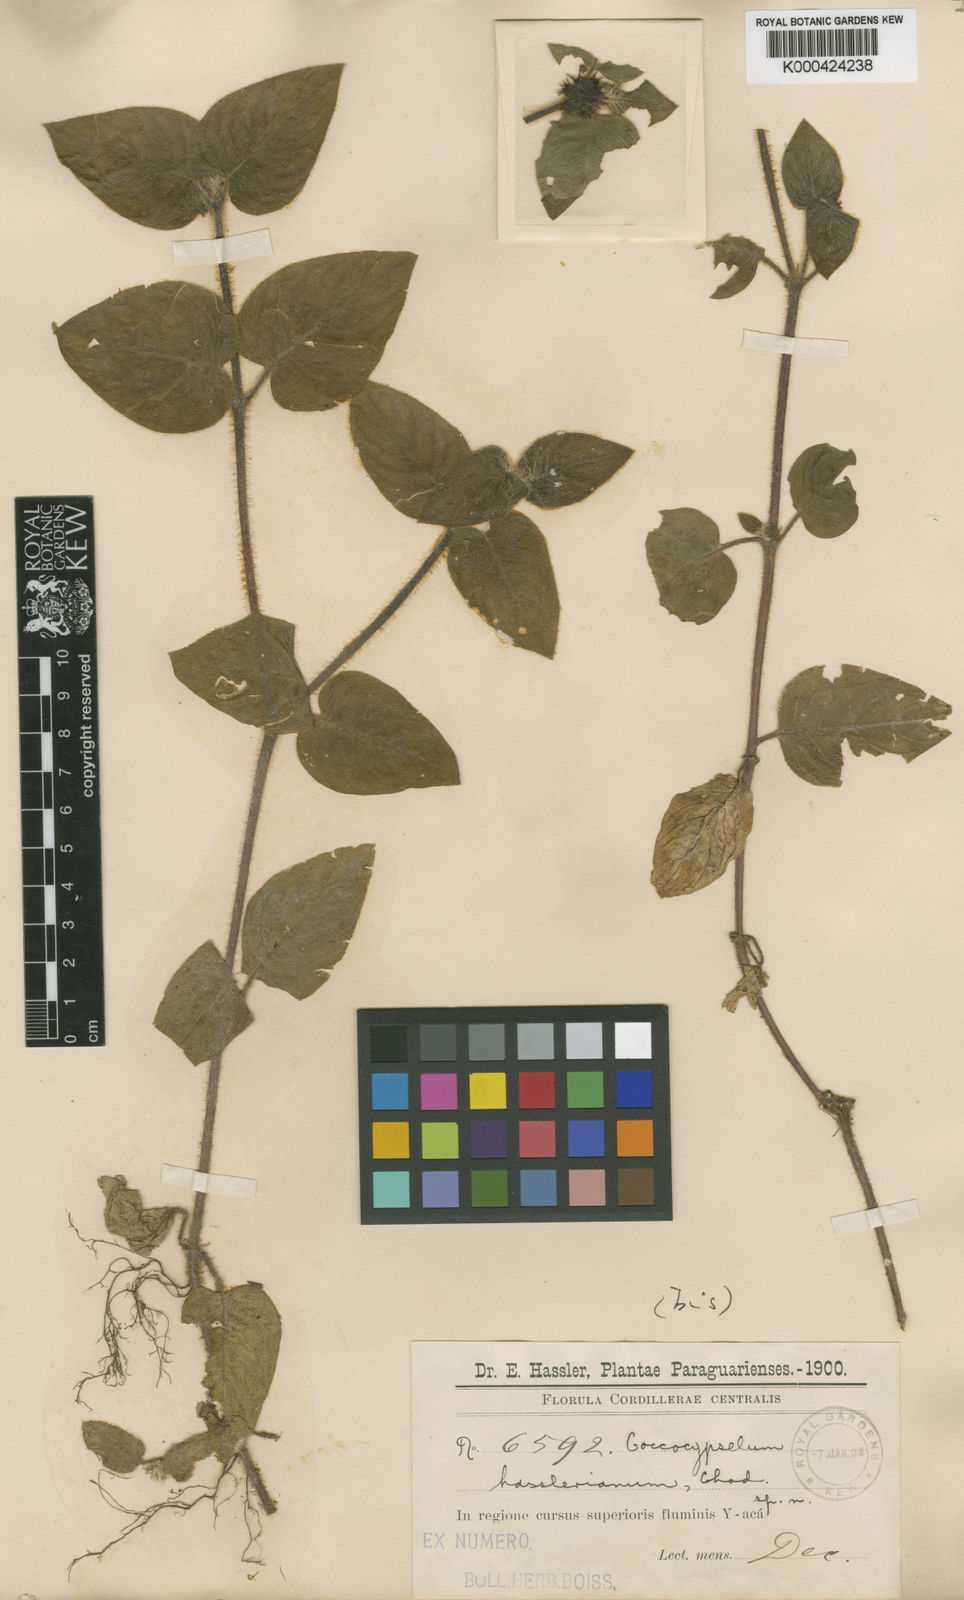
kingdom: Plantae
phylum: Tracheophyta
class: Magnoliopsida
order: Gentianales
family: Rubiaceae
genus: Coccocypselum
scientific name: Coccocypselum hasslerianum
